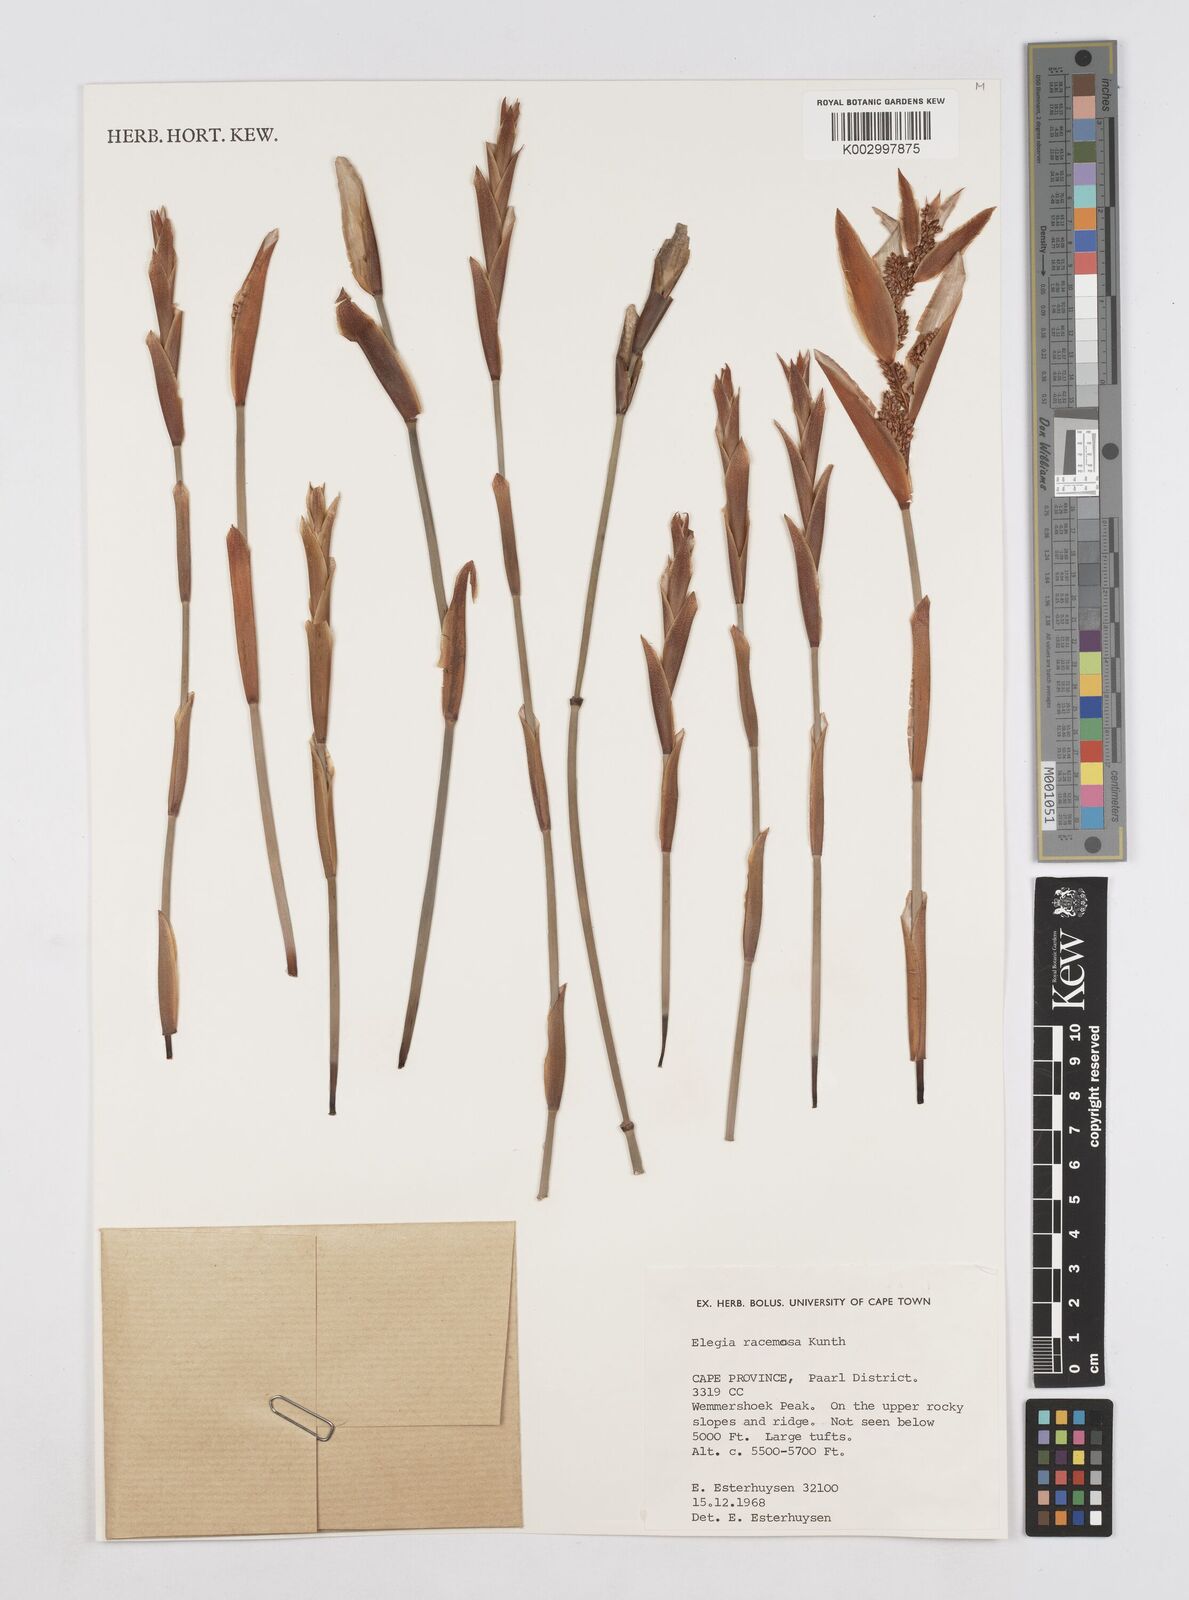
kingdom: Plantae
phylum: Tracheophyta
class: Liliopsida
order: Poales
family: Restionaceae
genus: Elegia
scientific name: Elegia racemosa
